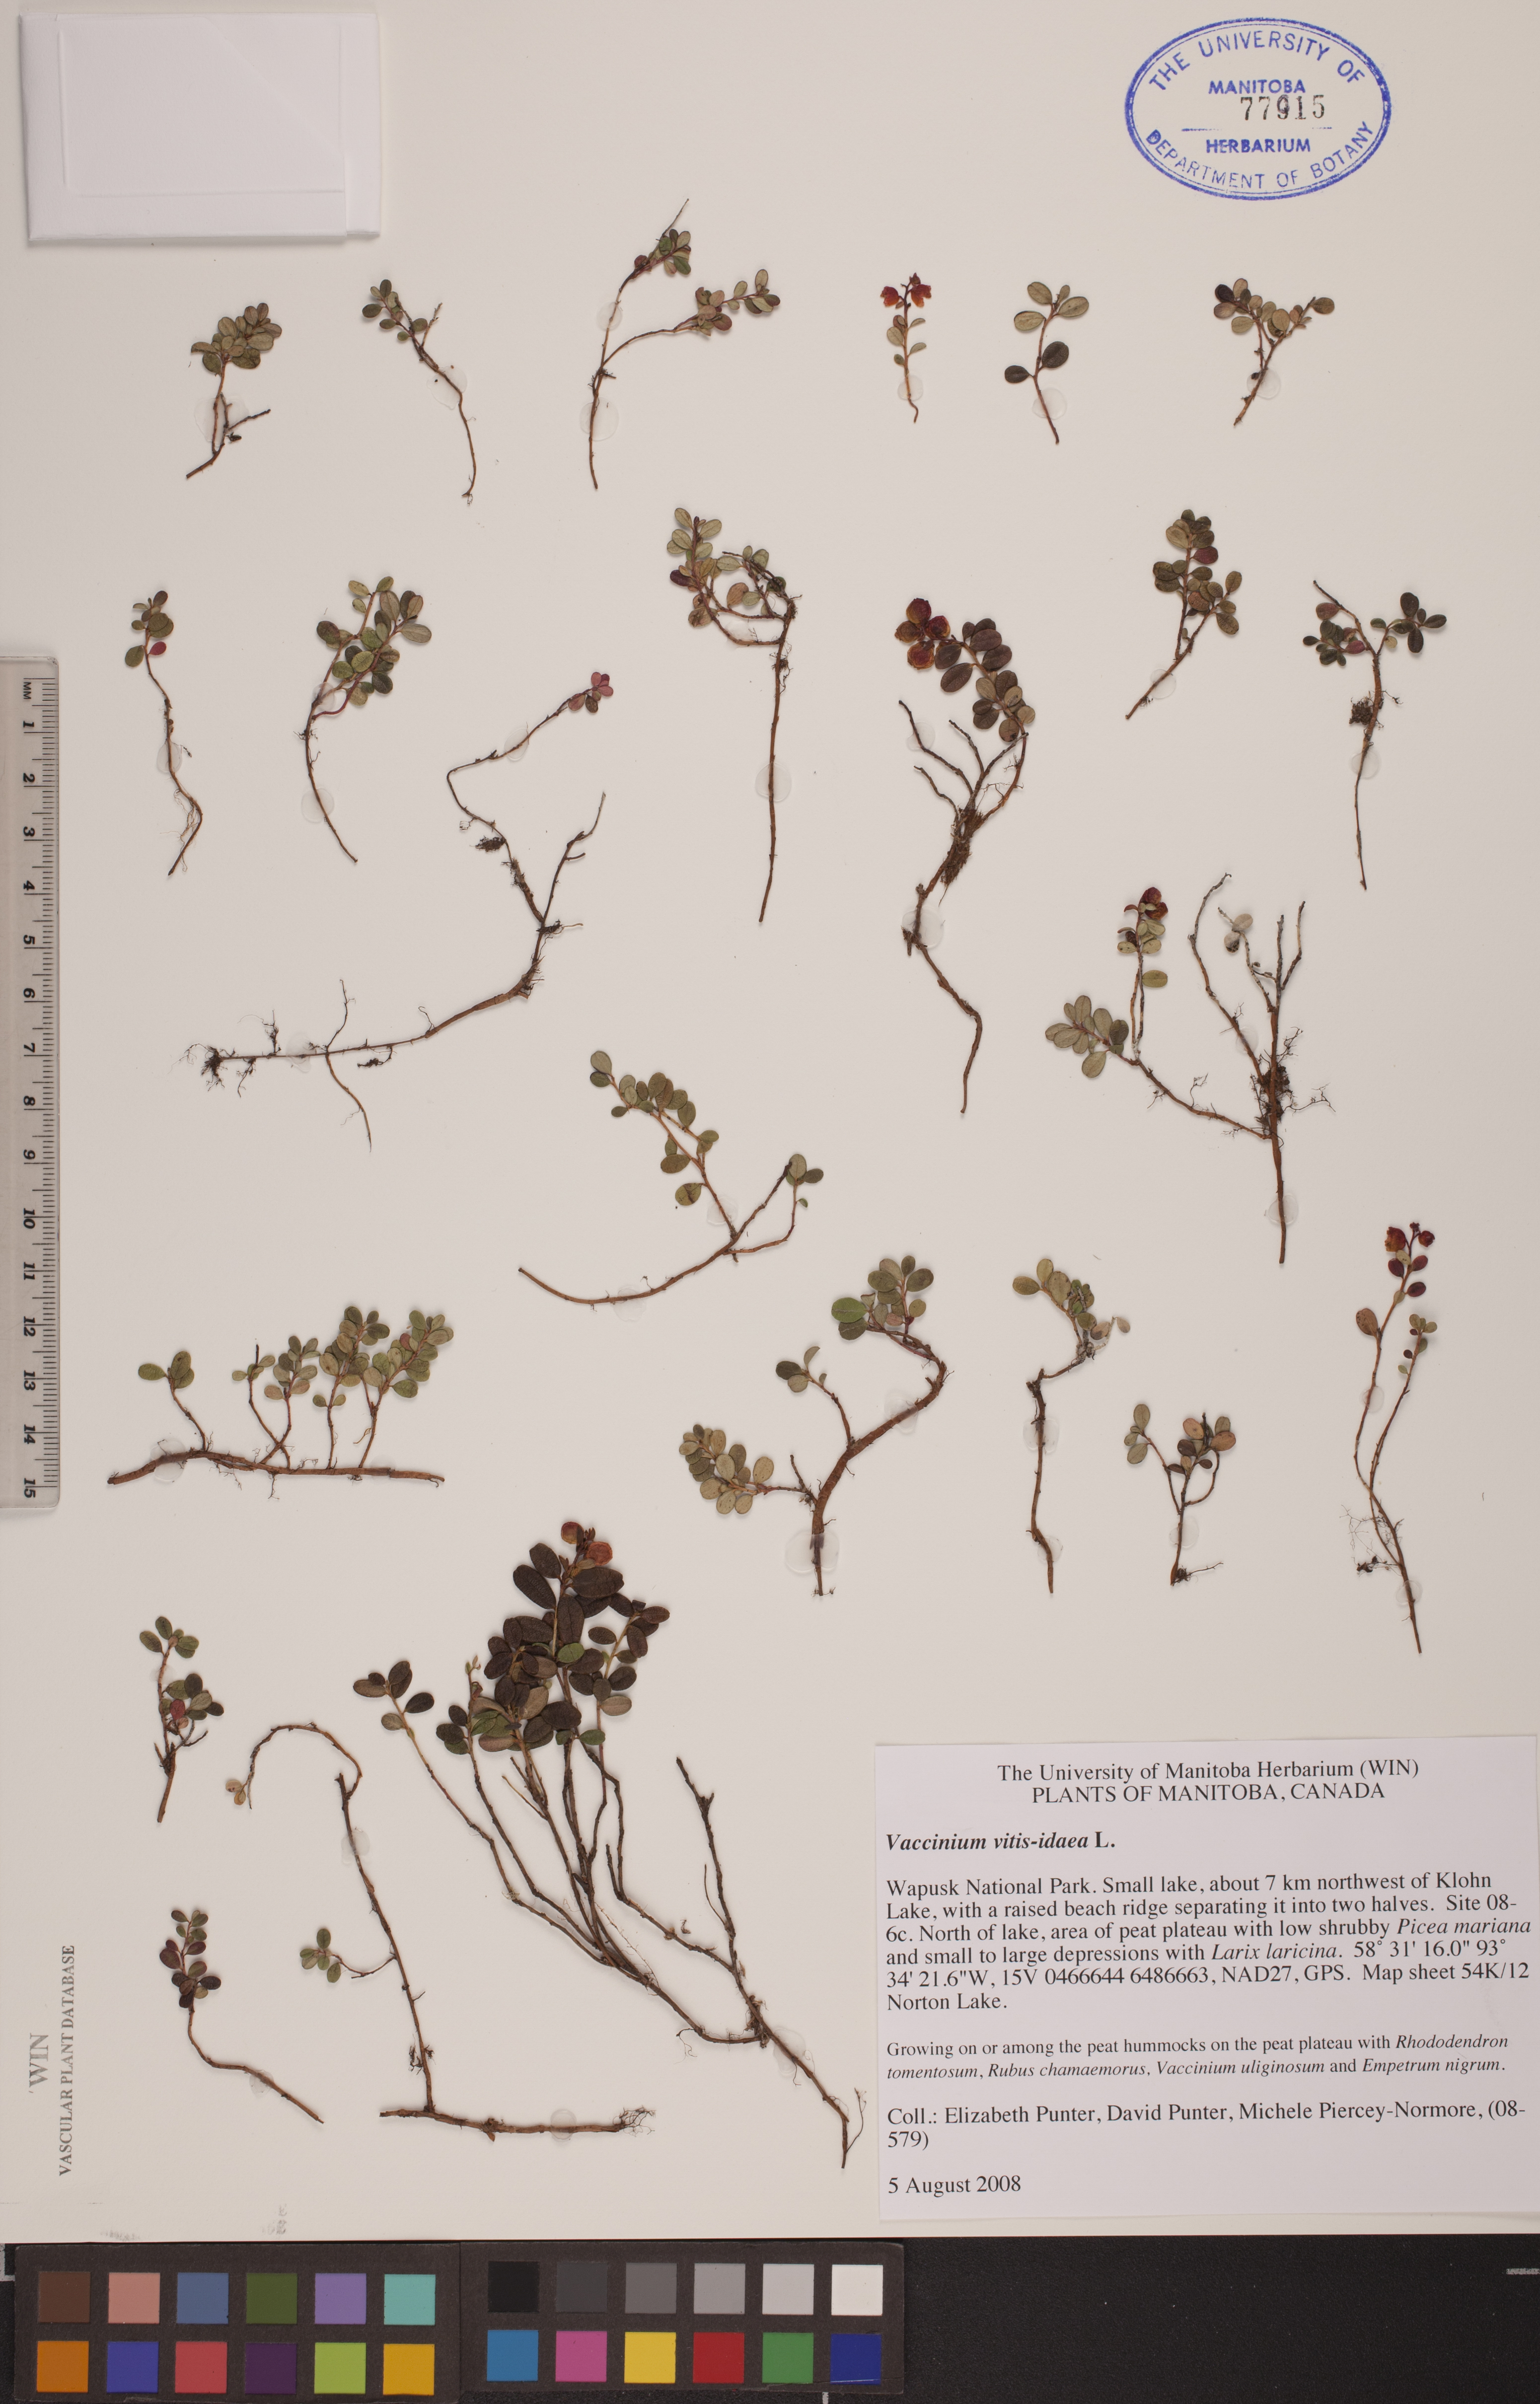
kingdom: Plantae
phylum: Tracheophyta
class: Magnoliopsida
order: Ericales
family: Ericaceae
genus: Vaccinium
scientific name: Vaccinium vitis-idaea
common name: Cowberry
